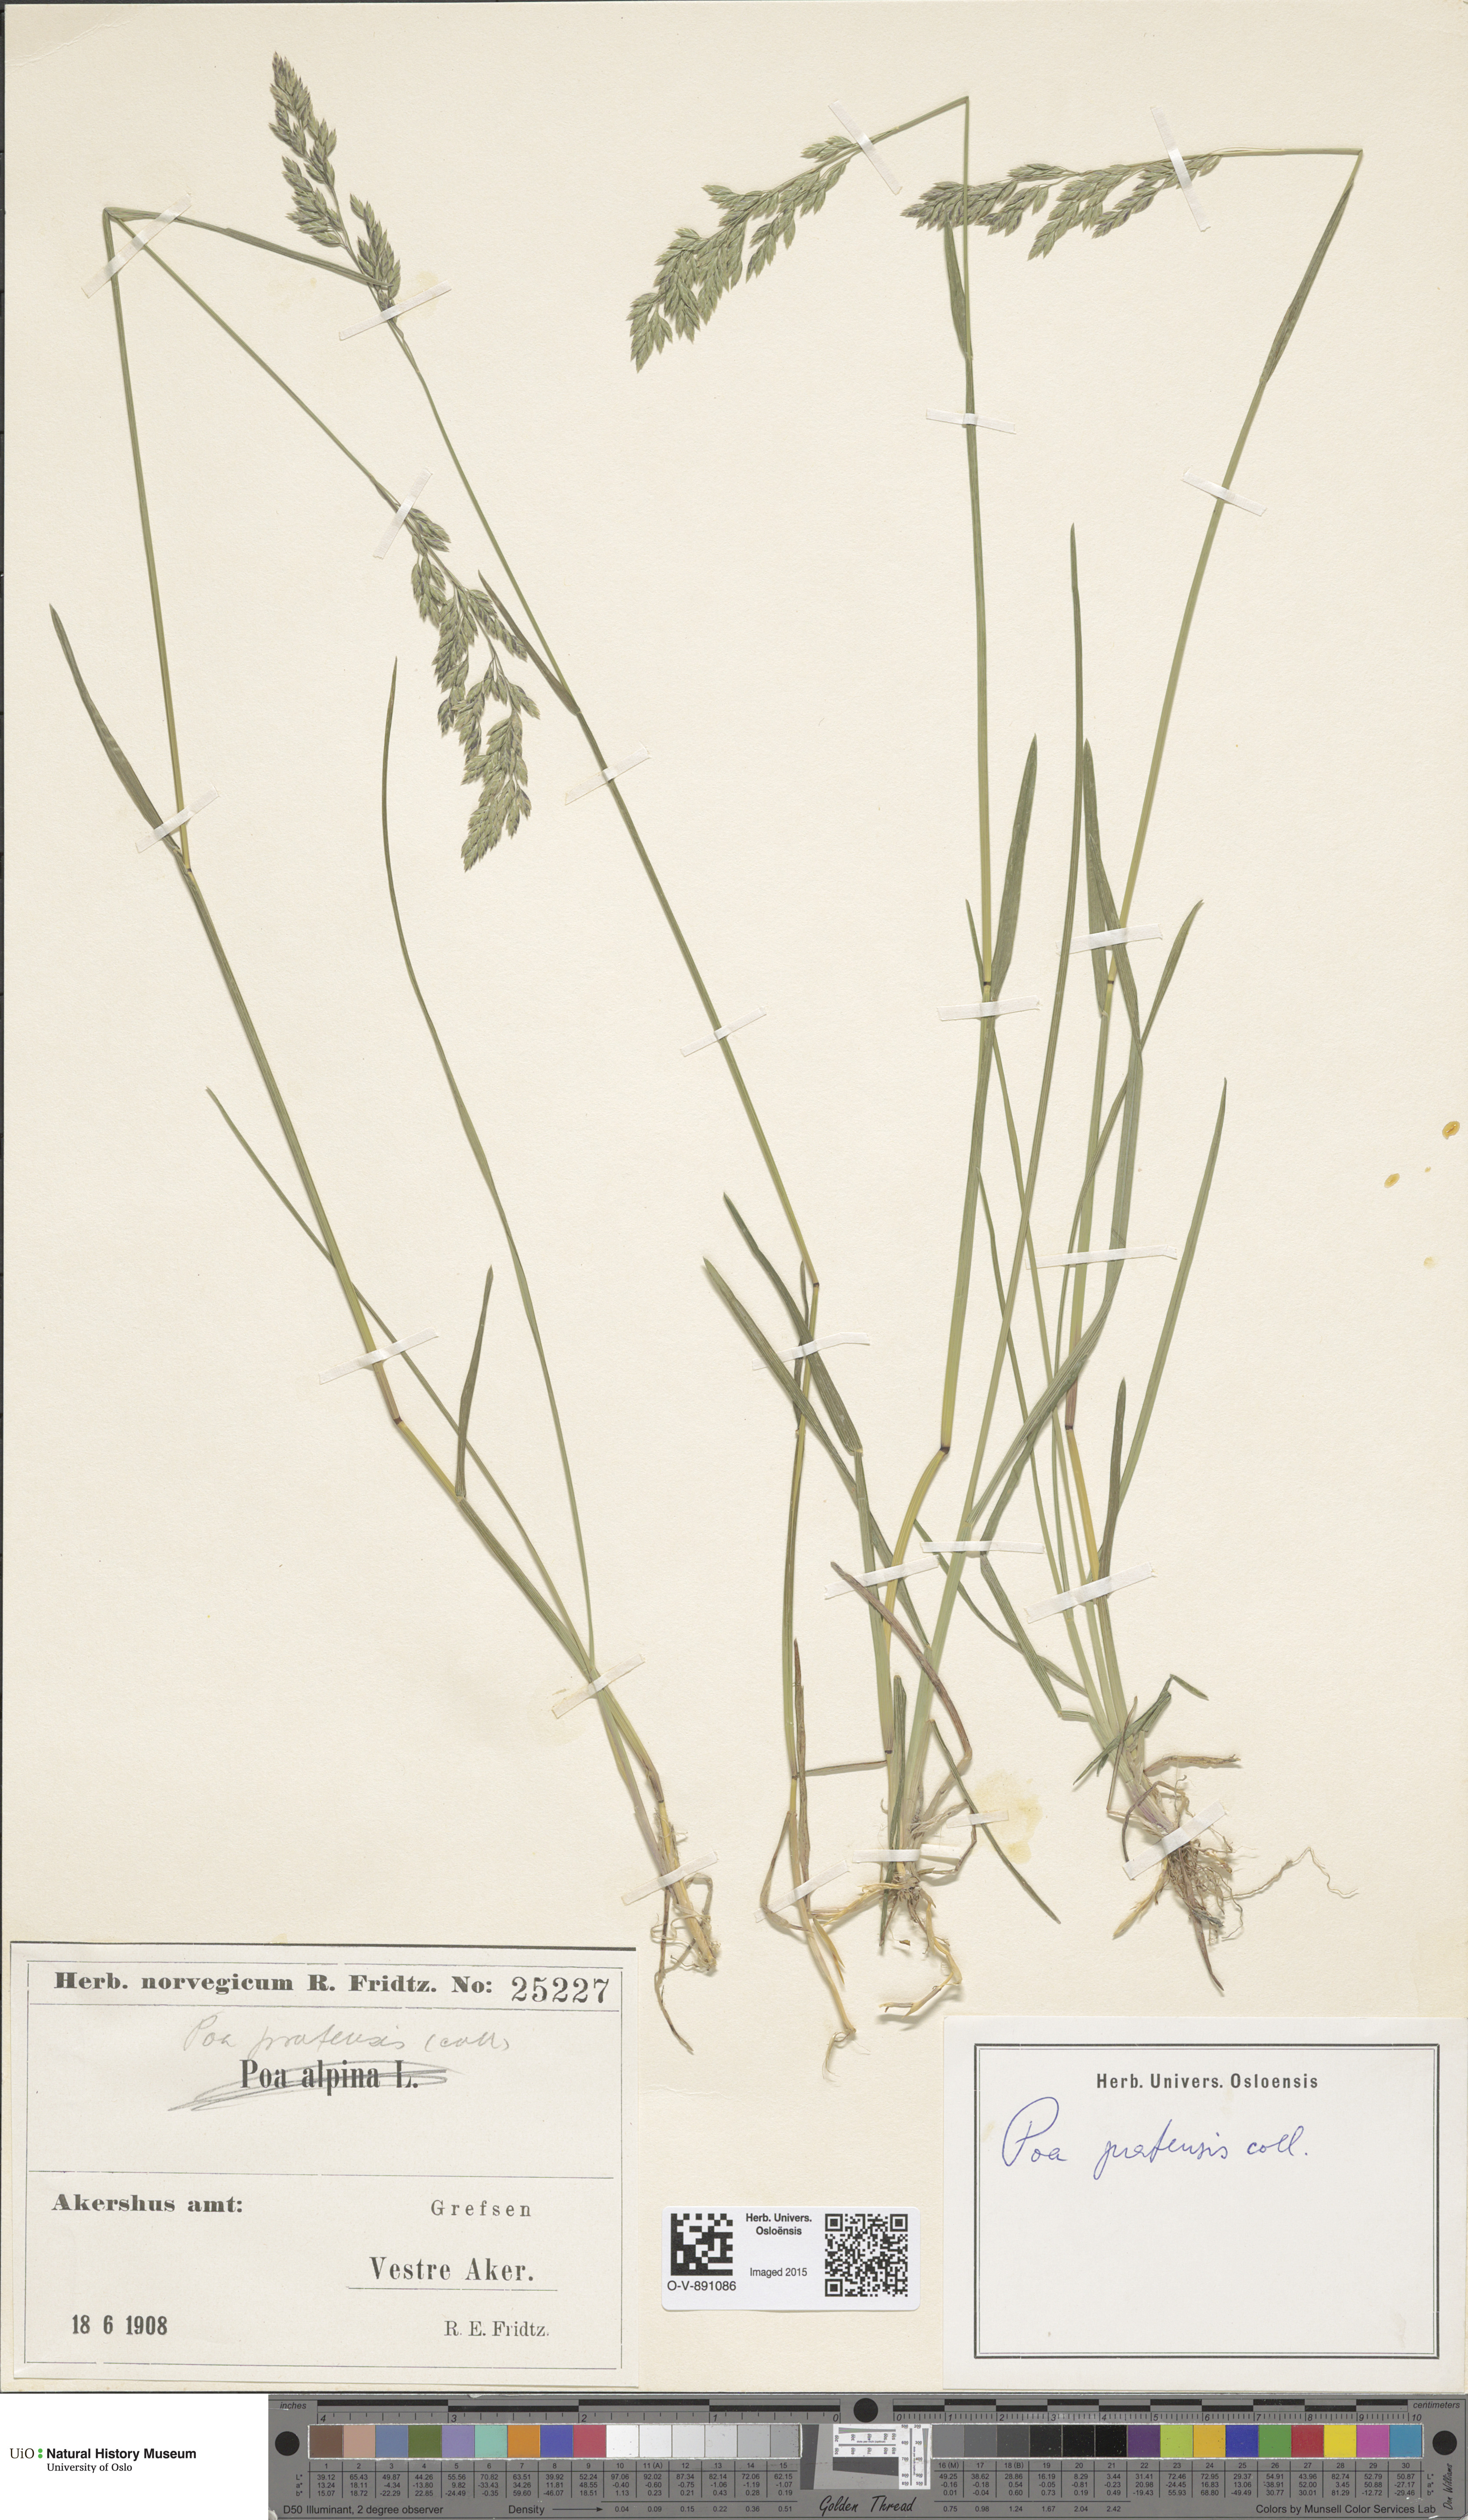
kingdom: Plantae
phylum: Tracheophyta
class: Liliopsida
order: Poales
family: Poaceae
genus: Poa
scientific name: Poa pratensis
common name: Kentucky bluegrass
